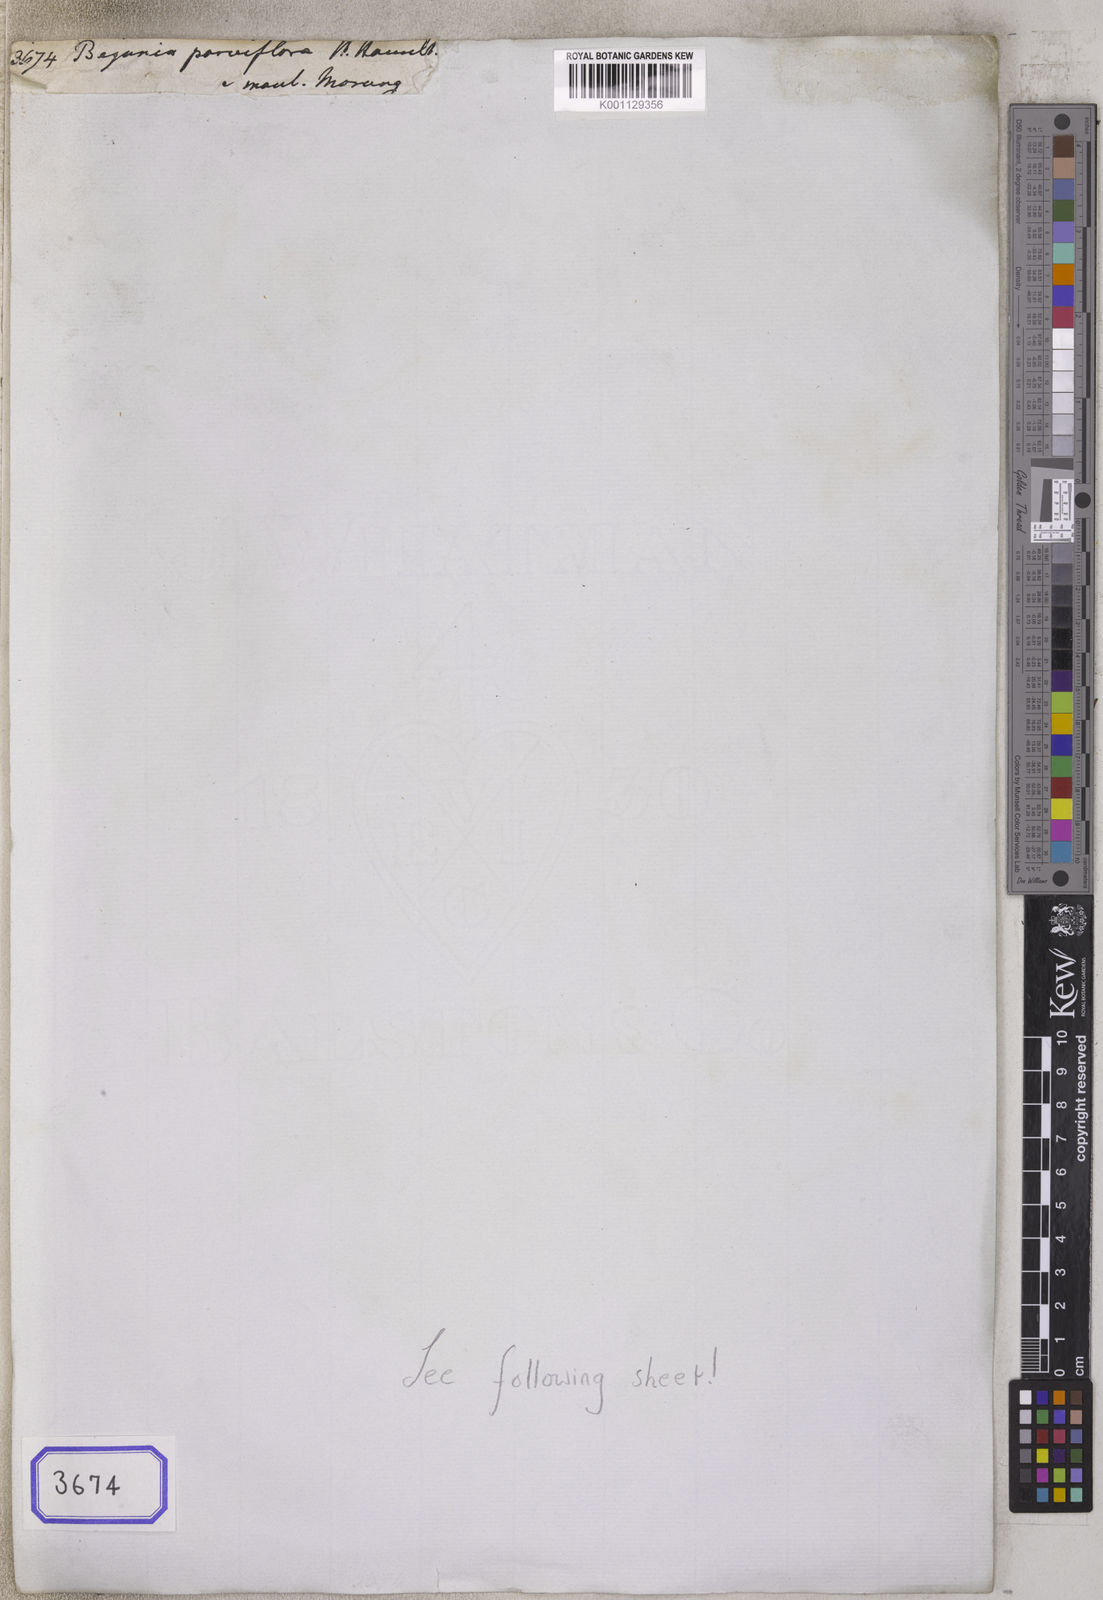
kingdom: Plantae
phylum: Tracheophyta
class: Magnoliopsida
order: Cucurbitales
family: Begoniaceae
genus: Begonia
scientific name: Begonia
